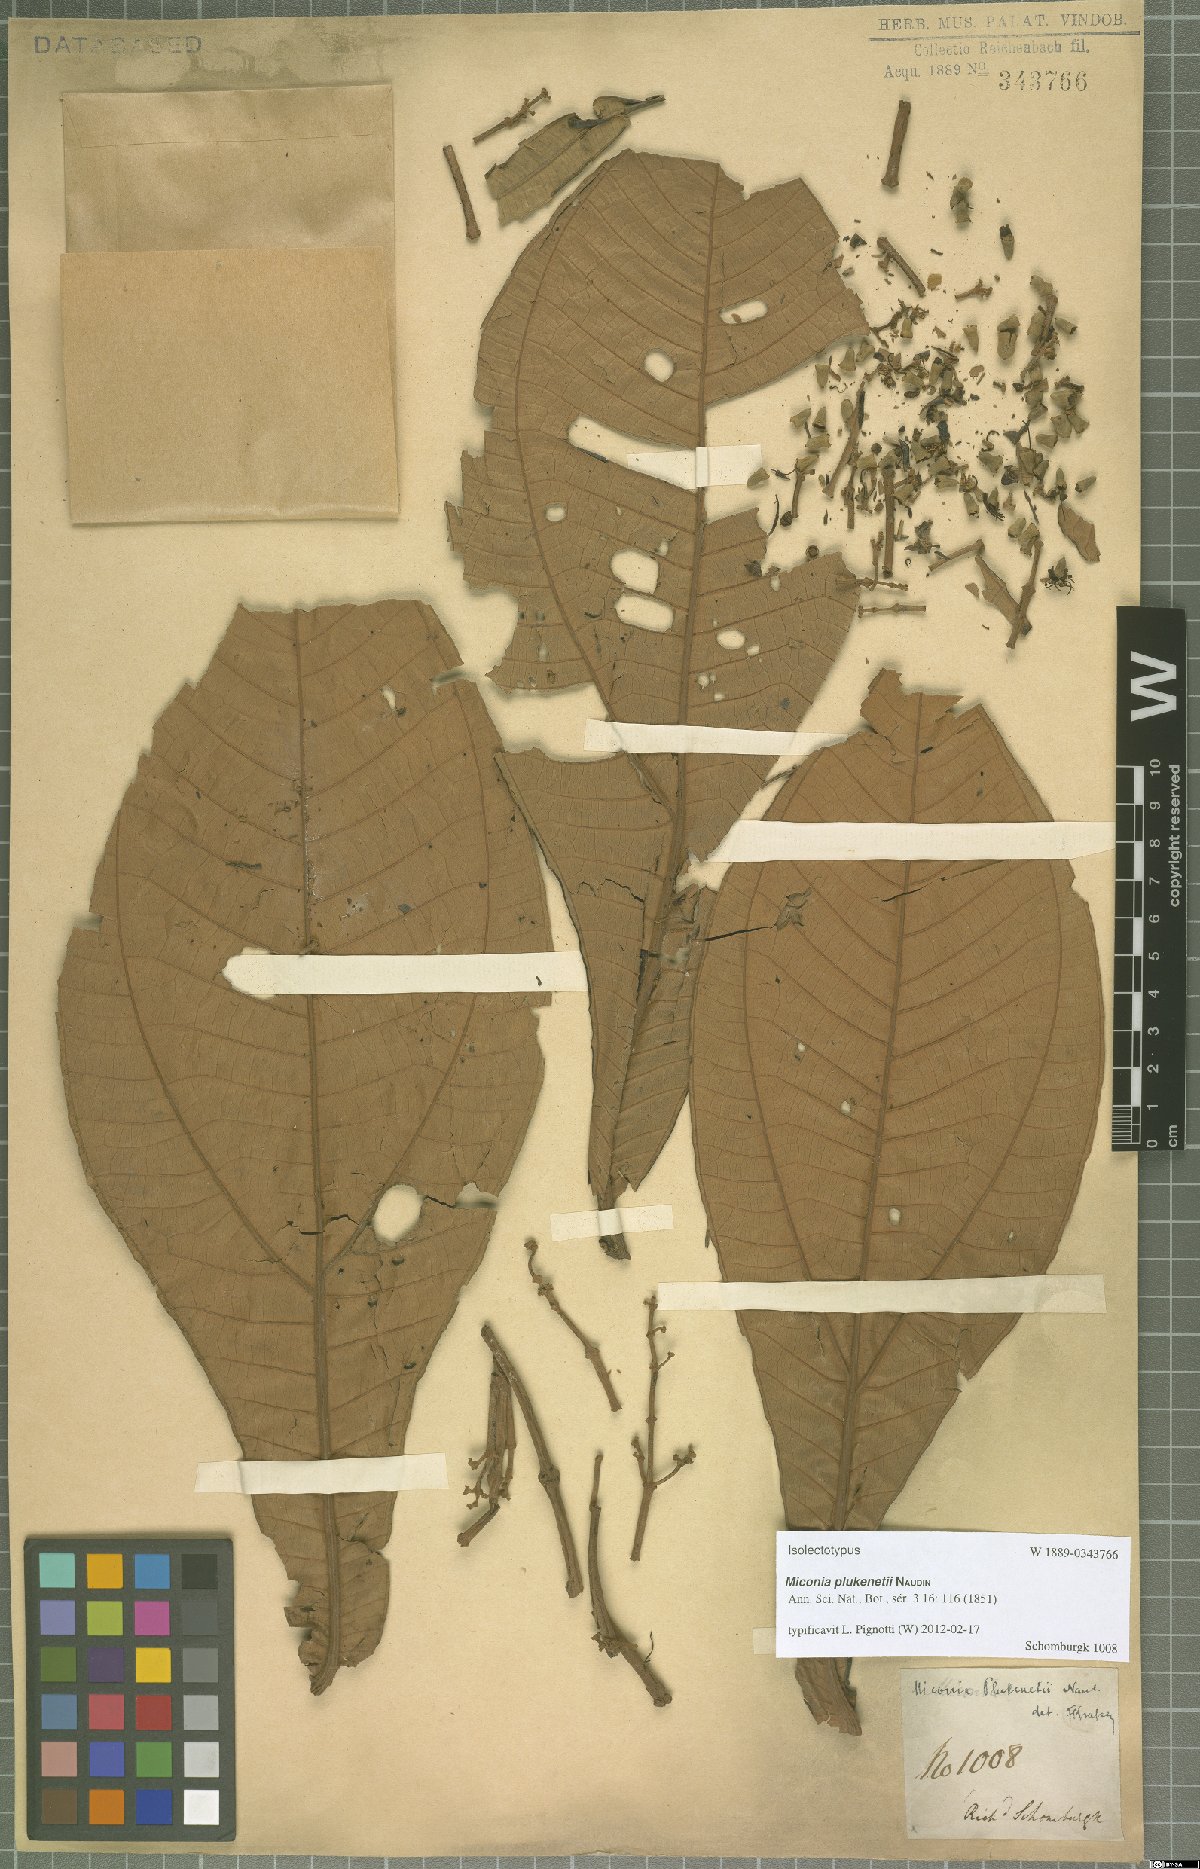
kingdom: Plantae
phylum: Tracheophyta
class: Magnoliopsida
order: Myrtales
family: Melastomataceae
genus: Miconia
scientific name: Miconia plukenetii
